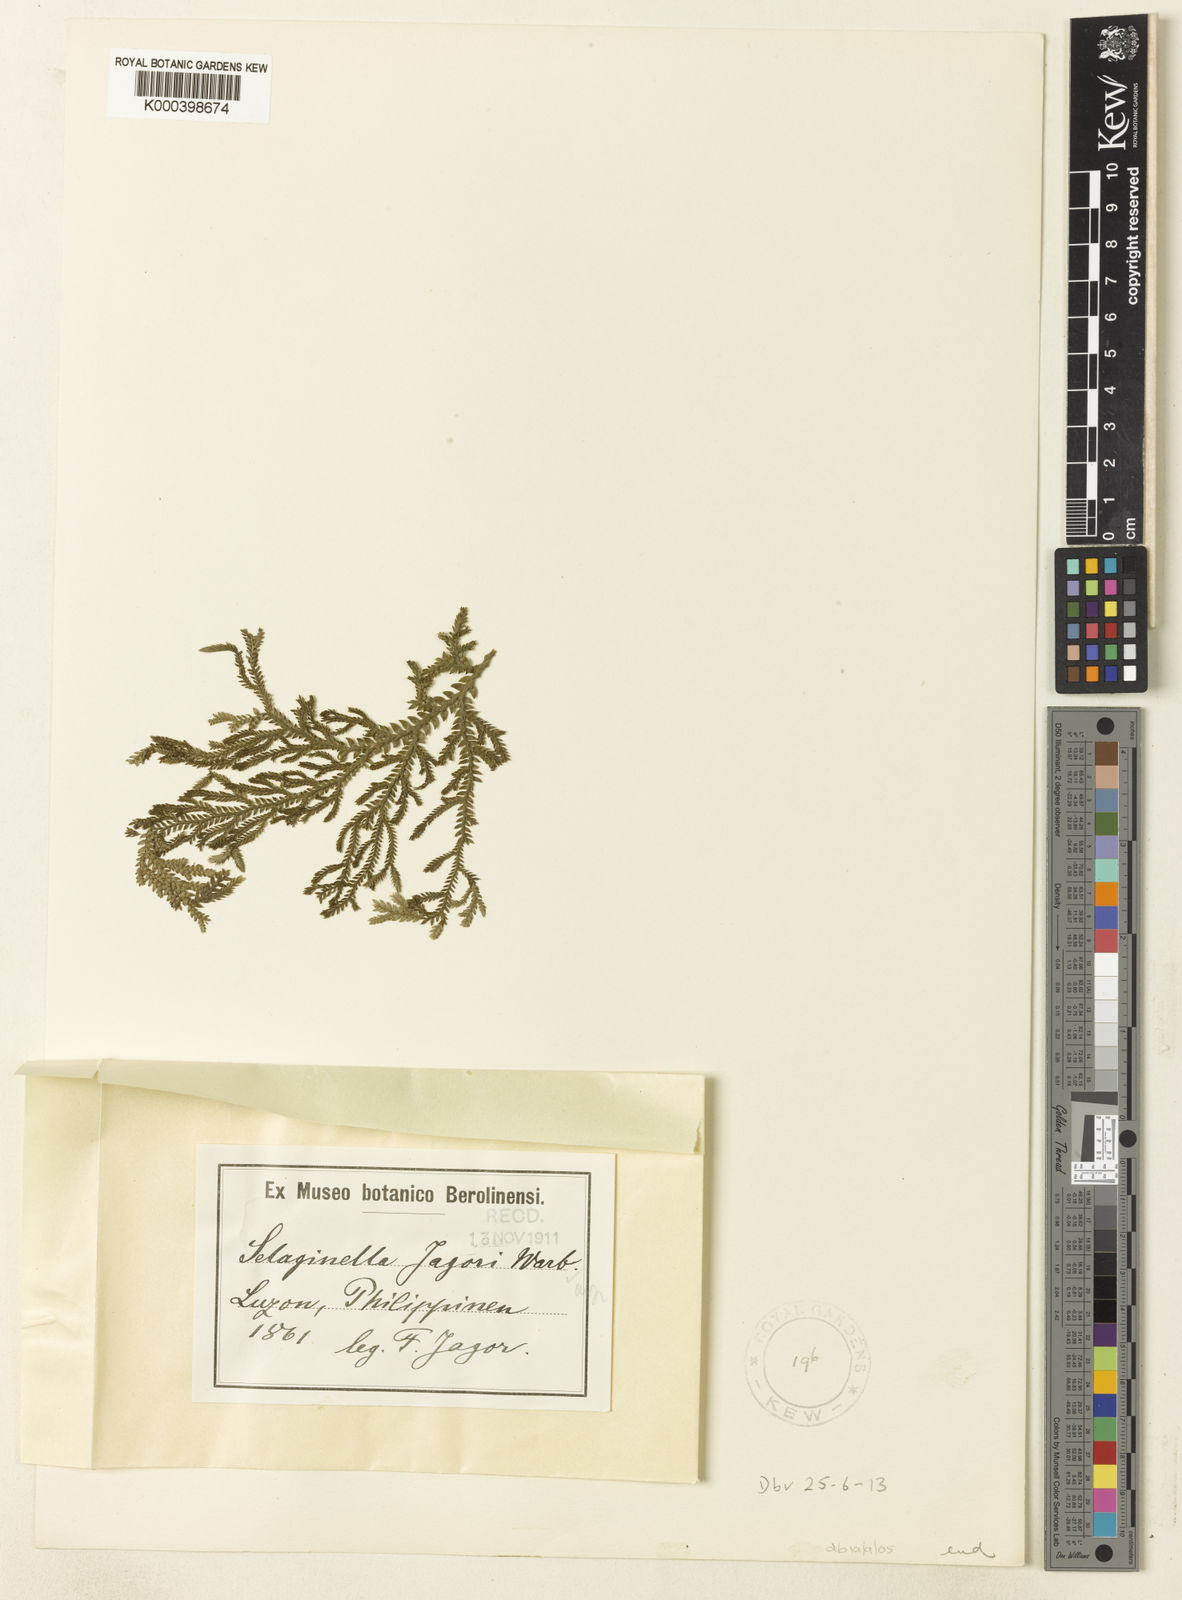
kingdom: Plantae
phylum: Tracheophyta
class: Lycopodiopsida
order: Selaginellales
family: Selaginellaceae
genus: Selaginella
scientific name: Selaginella jagorii
